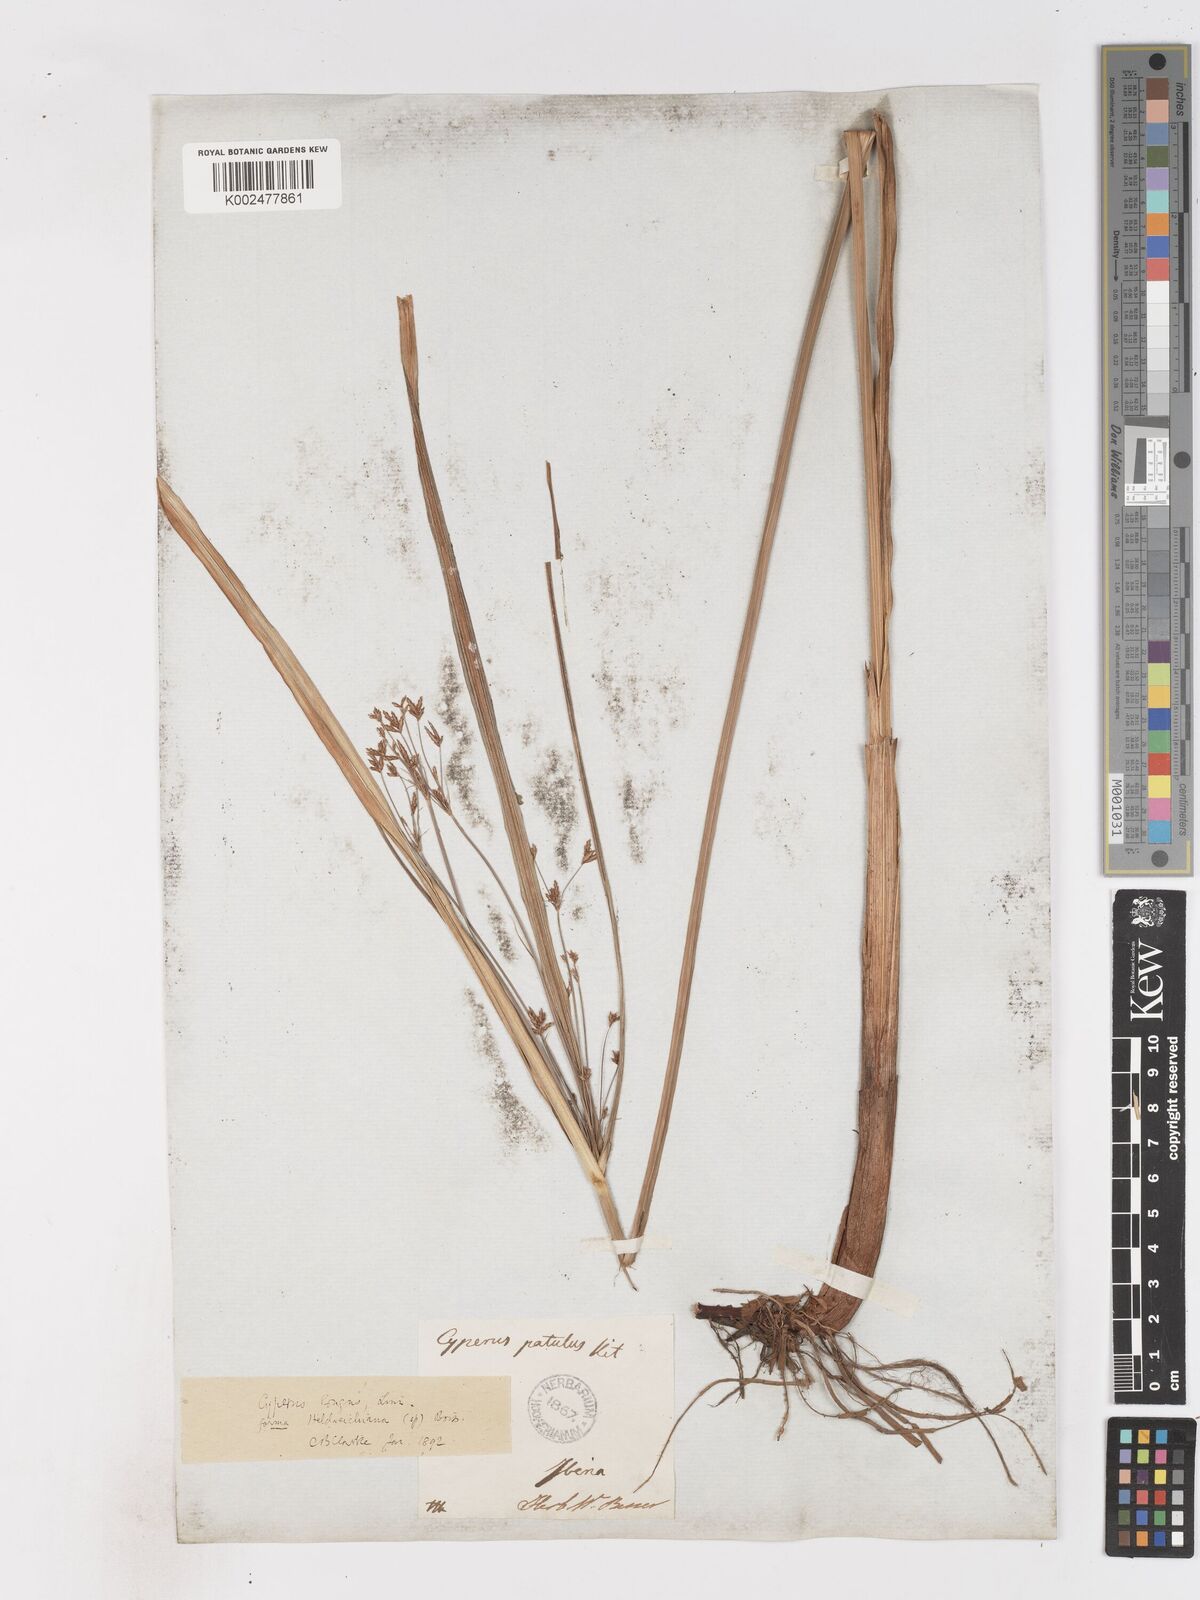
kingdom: Plantae
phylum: Tracheophyta
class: Liliopsida
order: Poales
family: Cyperaceae
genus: Cyperus
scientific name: Cyperus patulus
